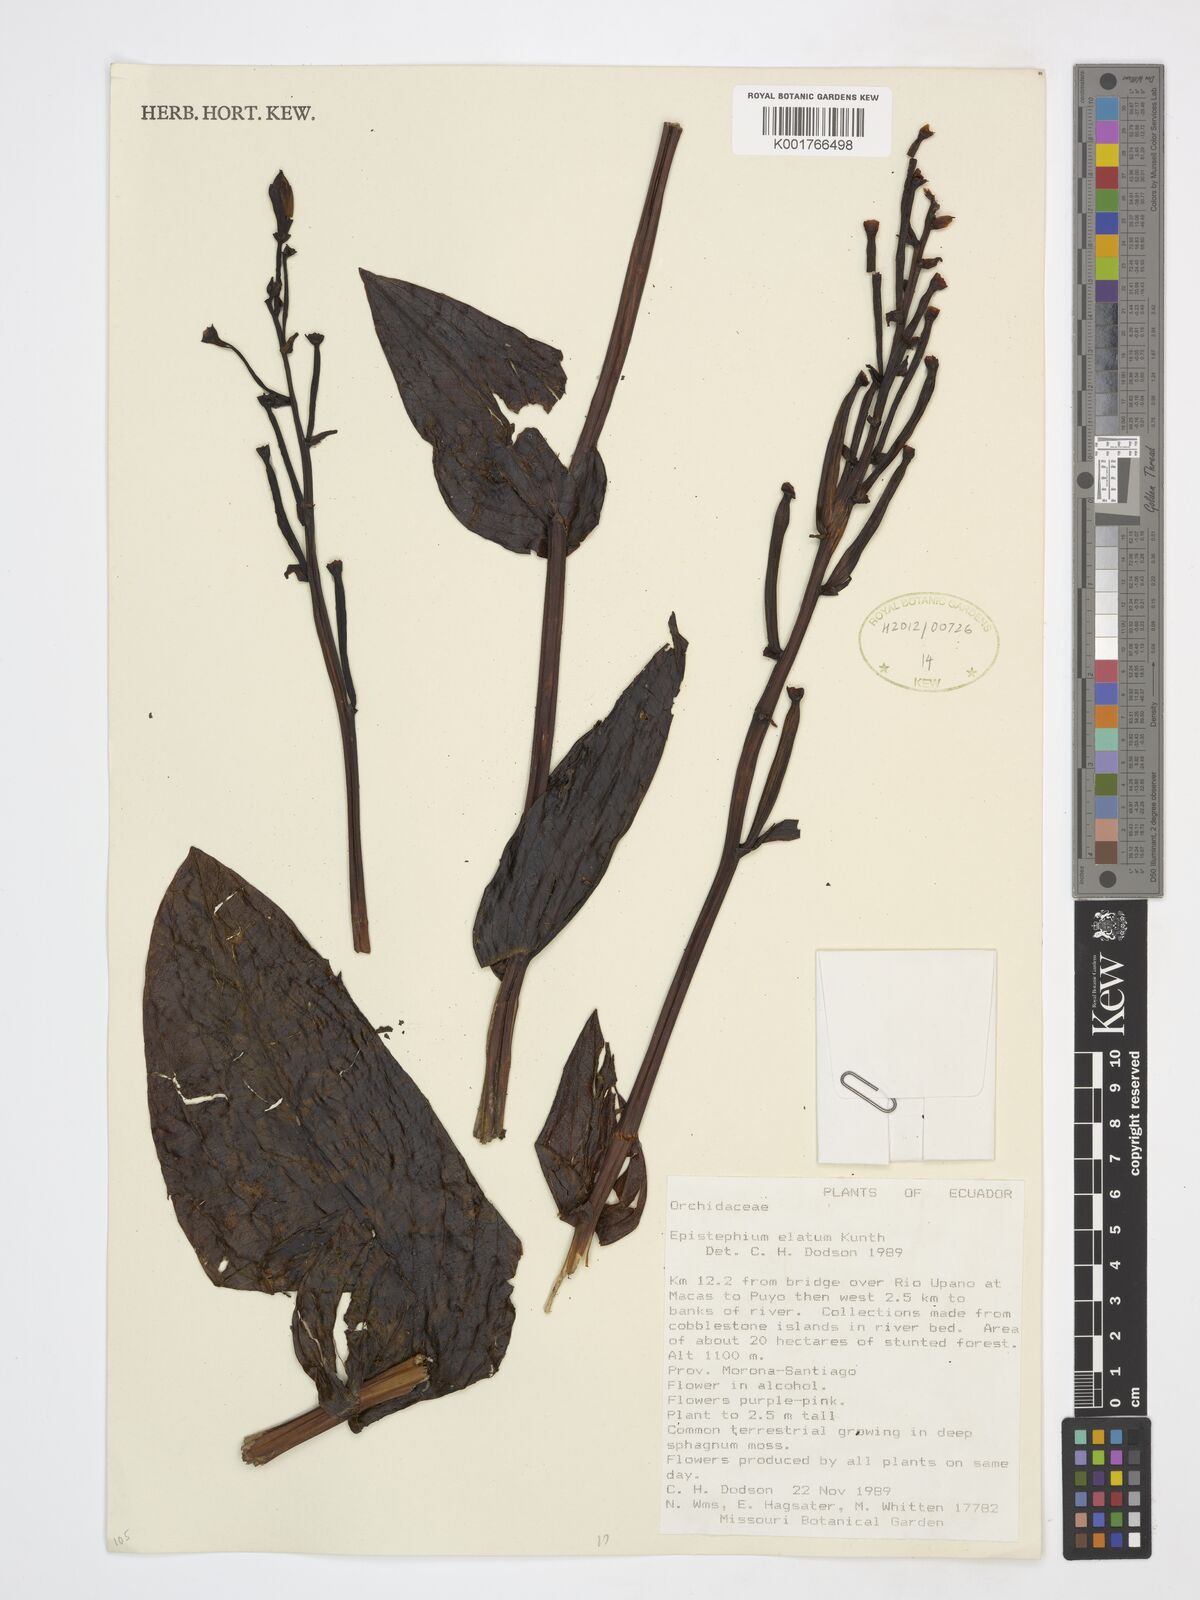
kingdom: Plantae
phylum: Tracheophyta
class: Liliopsida
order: Asparagales
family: Orchidaceae
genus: Epistephium
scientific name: Epistephium elatum
